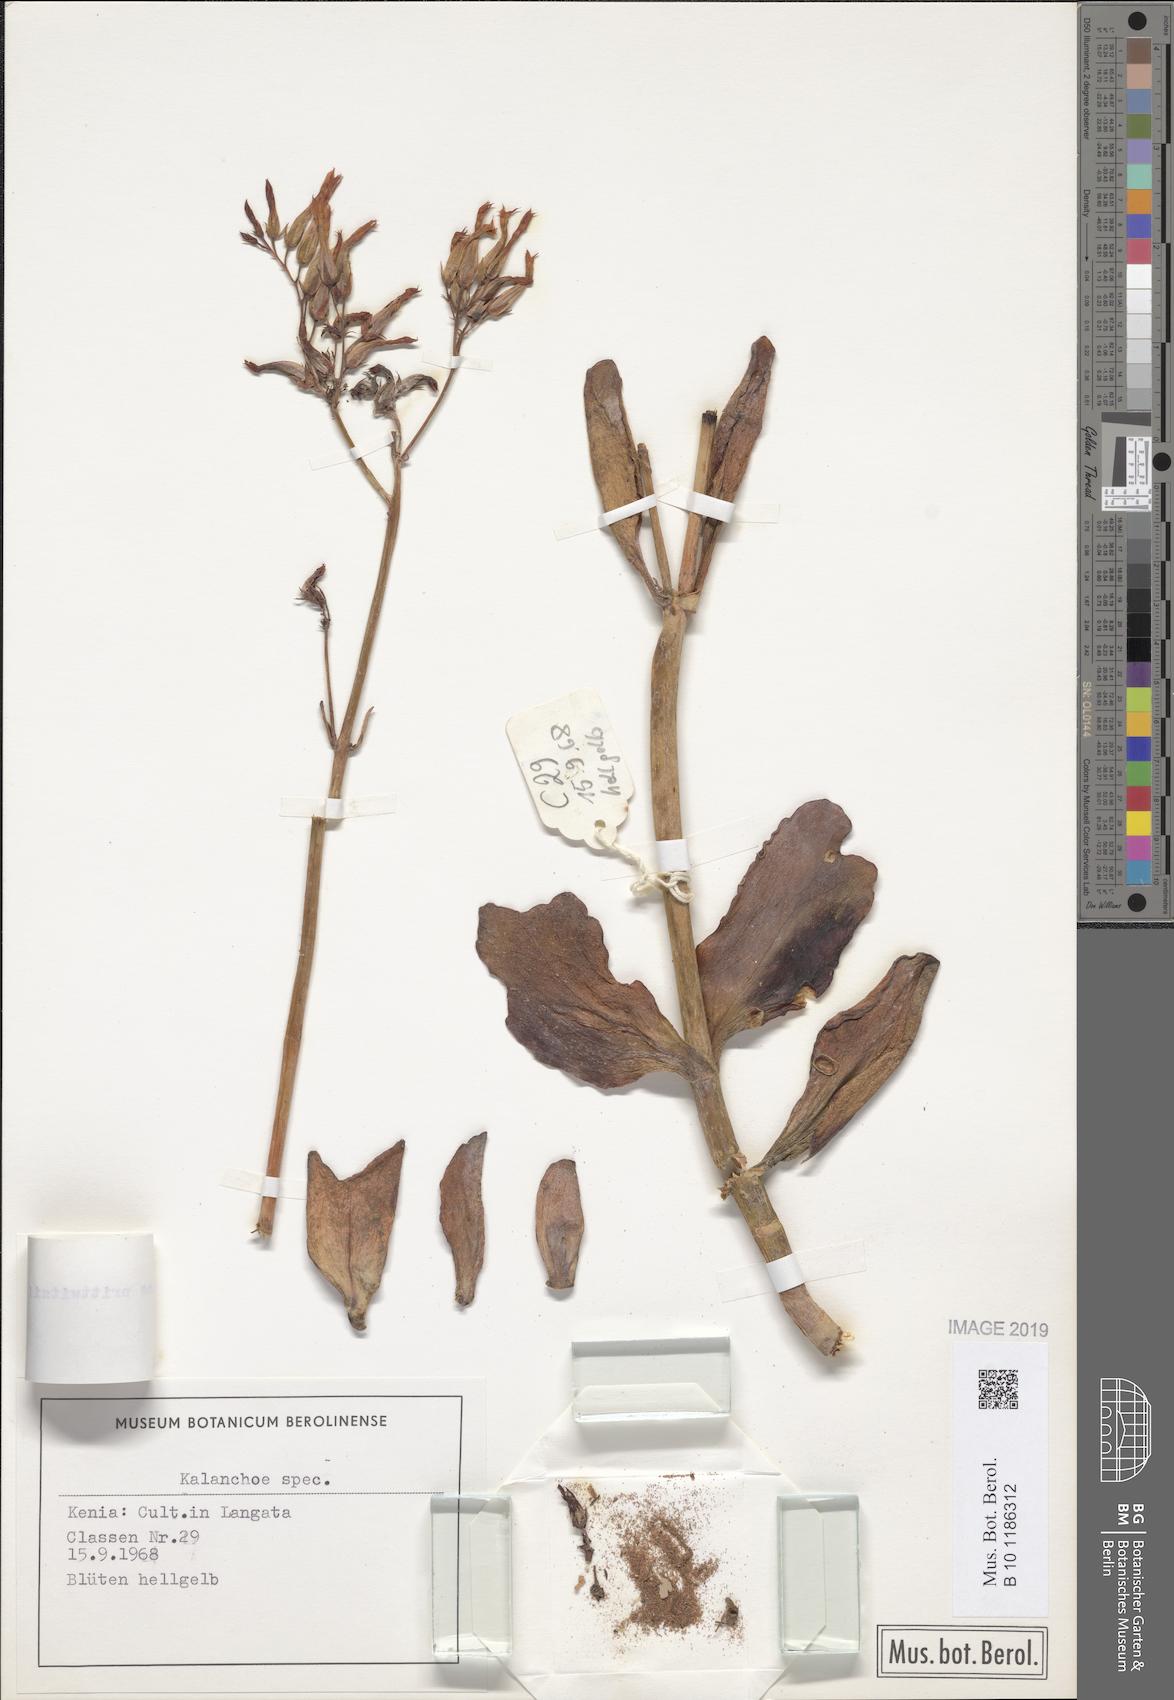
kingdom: Plantae
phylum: Tracheophyta
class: Magnoliopsida
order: Saxifragales
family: Crassulaceae
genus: Kalanchoe
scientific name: Kalanchoe prittwitzii
